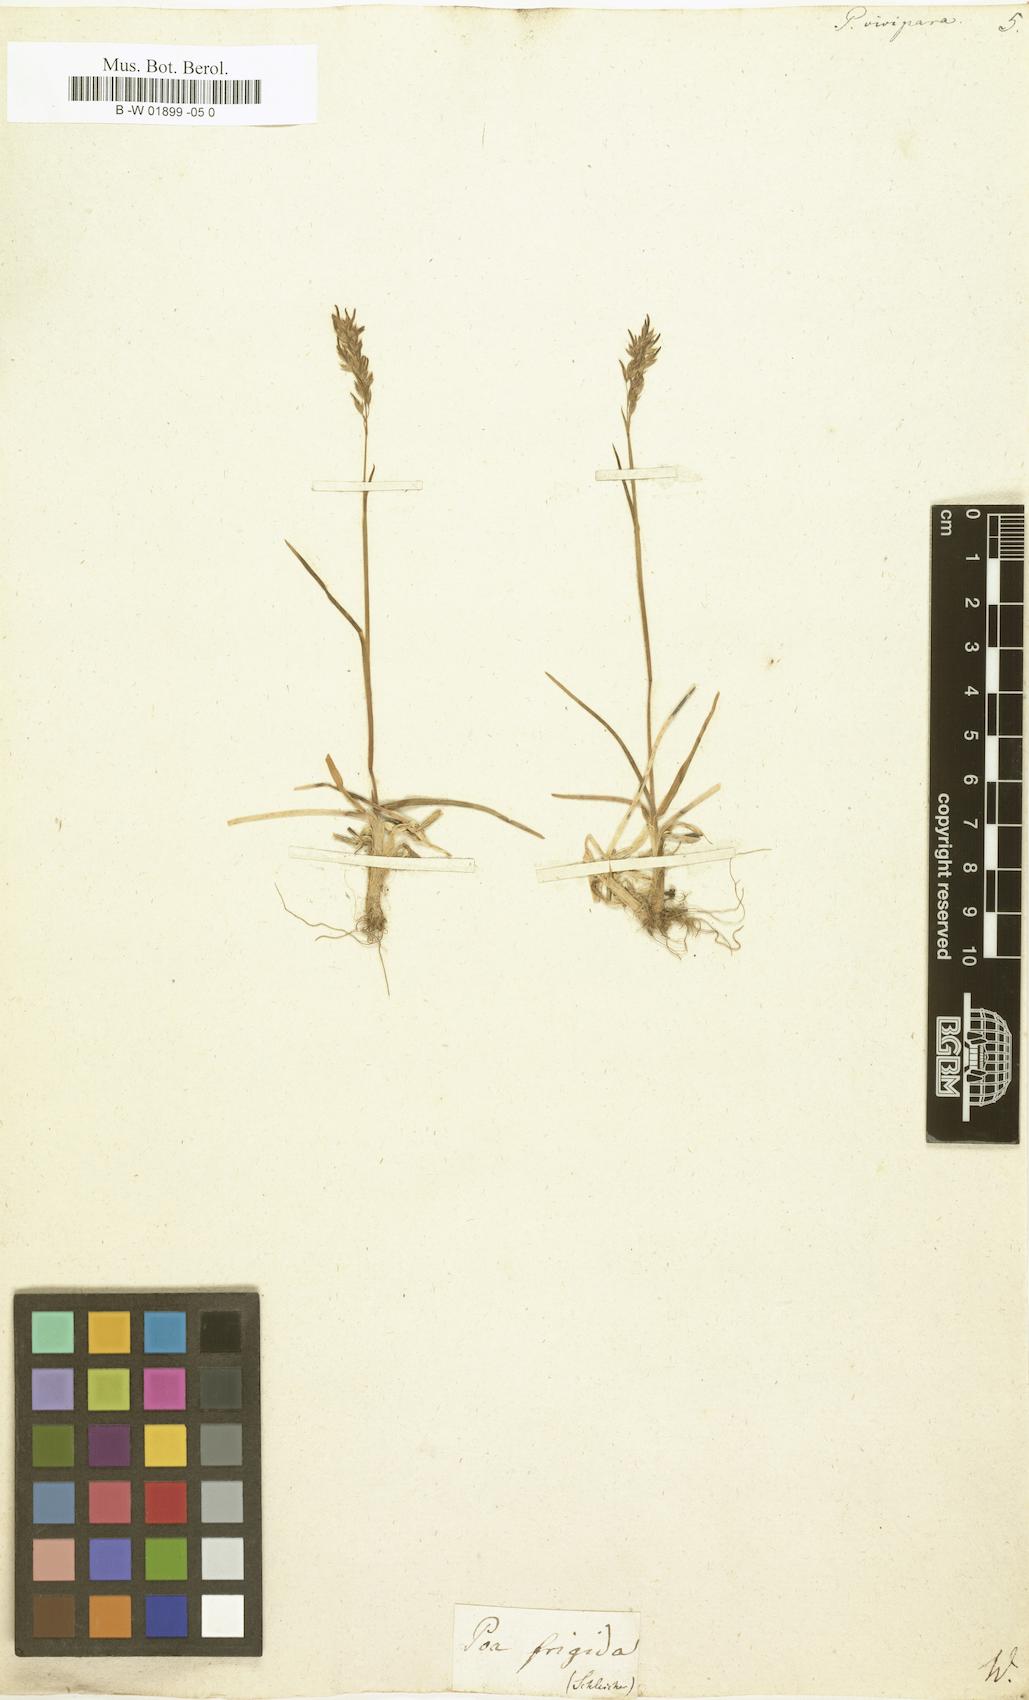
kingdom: Plantae
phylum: Tracheophyta
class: Liliopsida
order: Poales
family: Poaceae
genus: Poa
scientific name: Poa alpina
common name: Alpine bluegrass
